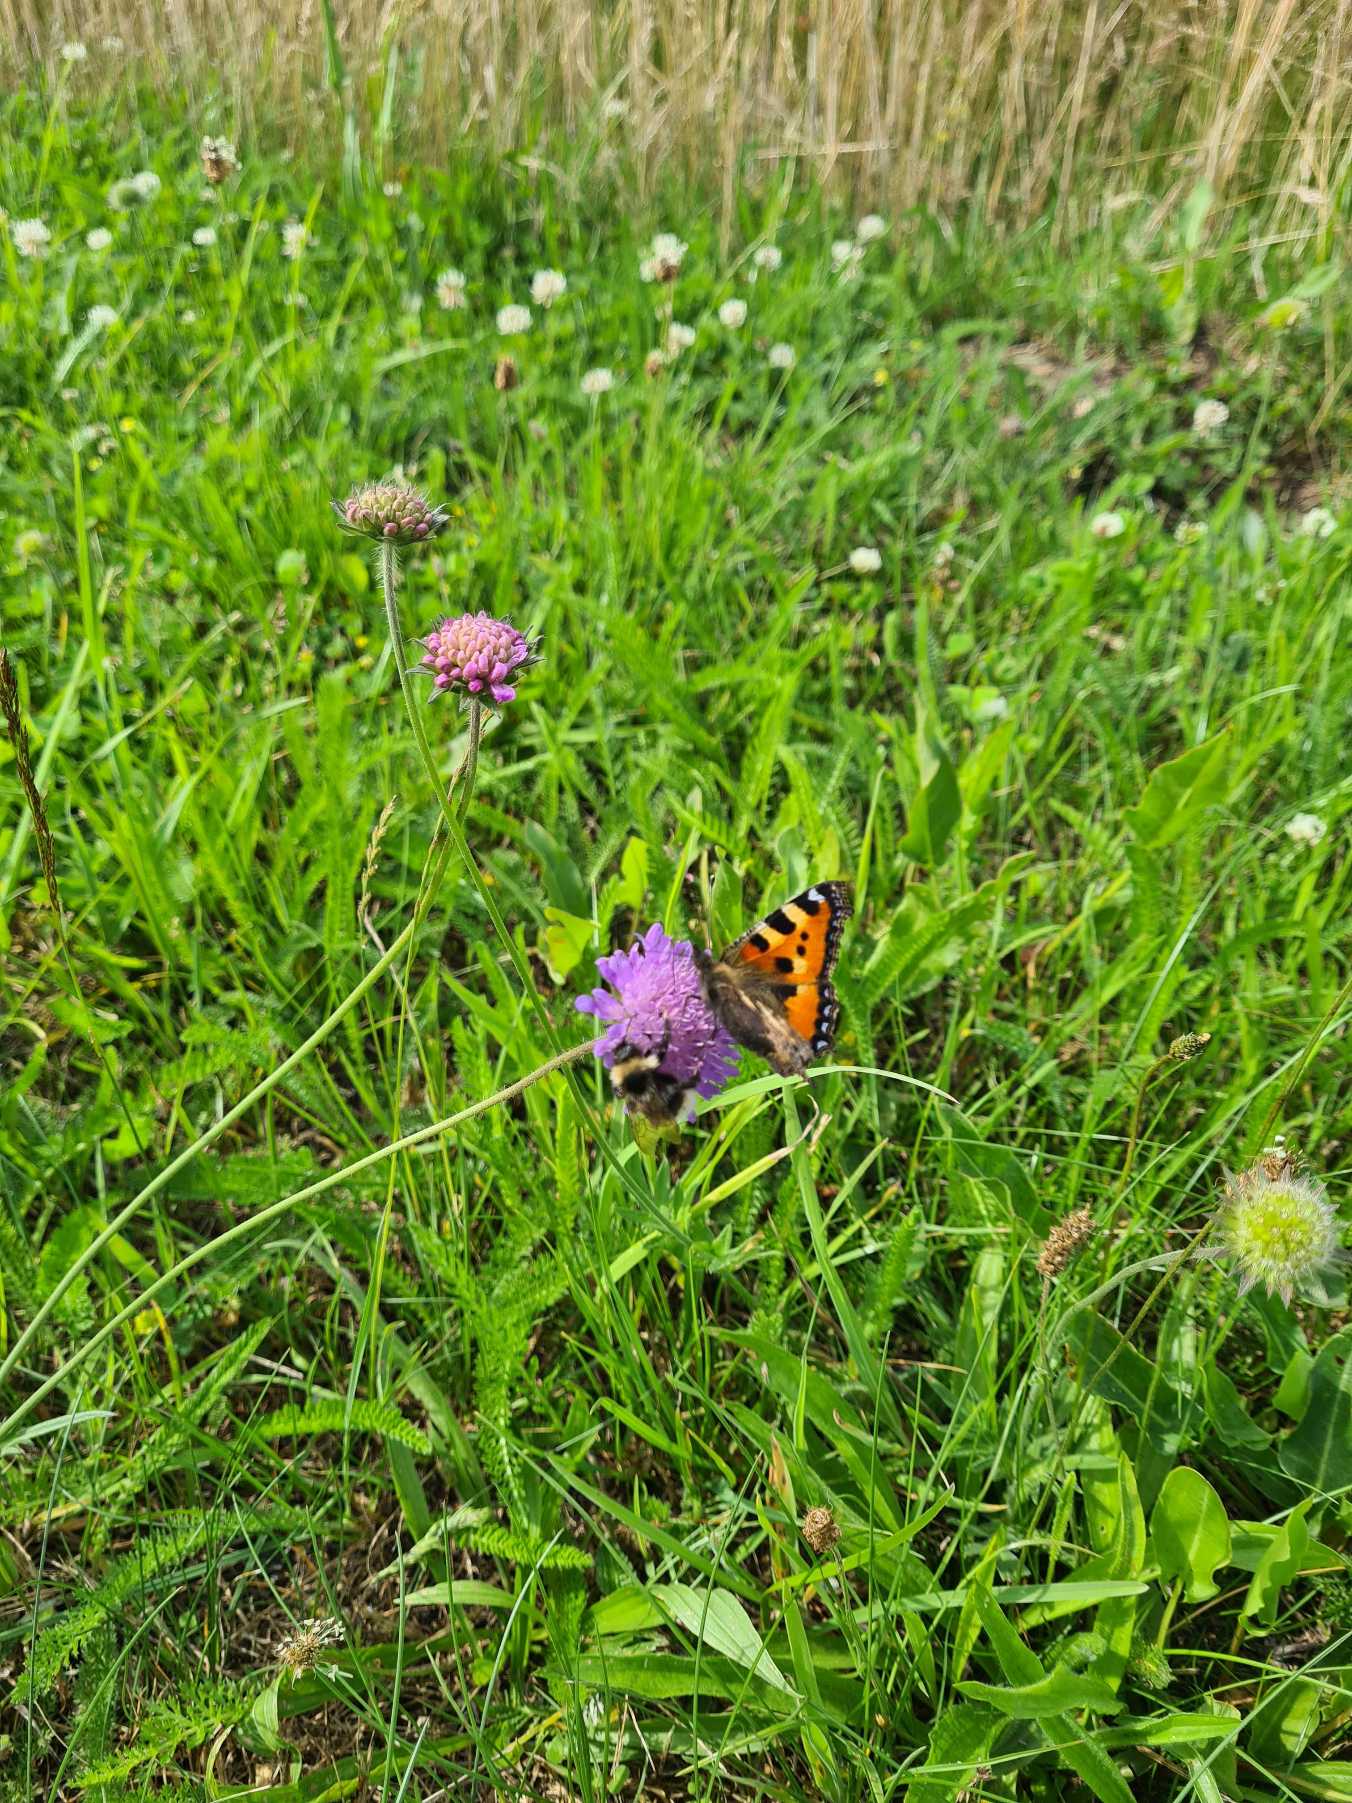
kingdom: Animalia
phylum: Arthropoda
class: Insecta
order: Lepidoptera
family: Nymphalidae
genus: Aglais
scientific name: Aglais urticae
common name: Nældens takvinge
